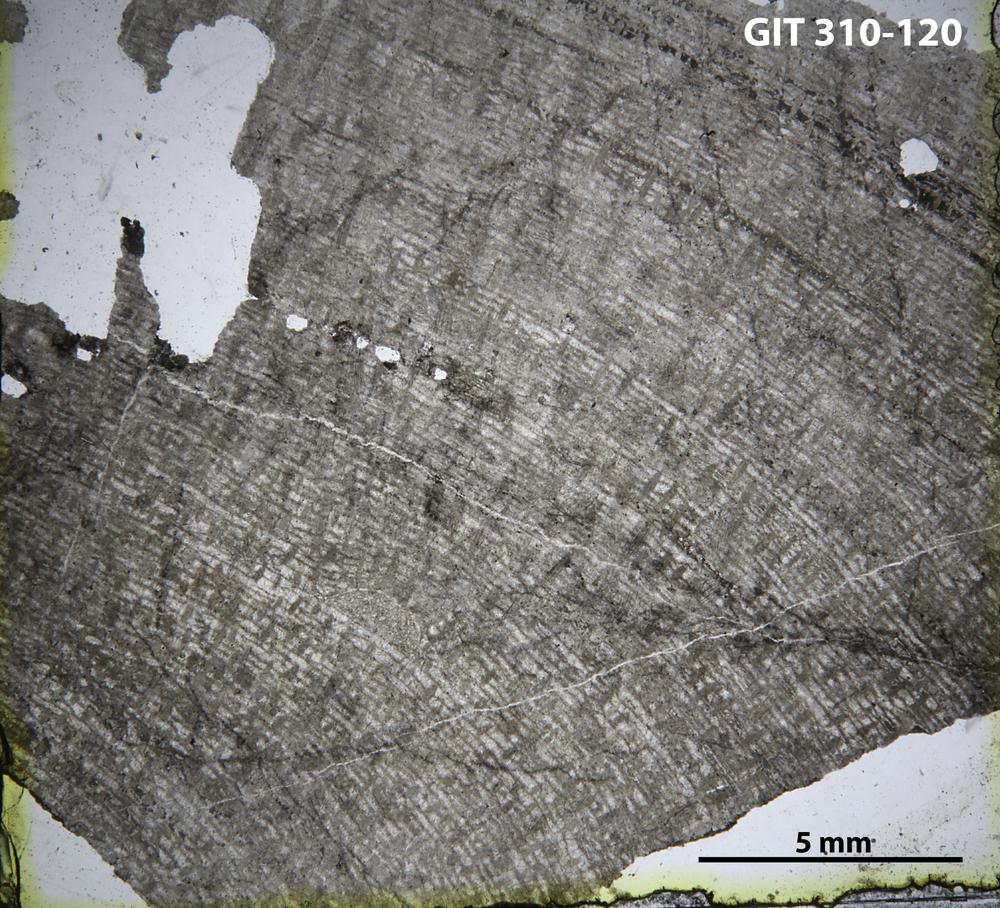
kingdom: Animalia
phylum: Porifera
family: Labechiidae
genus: Labechiella
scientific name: Labechiella regularis
